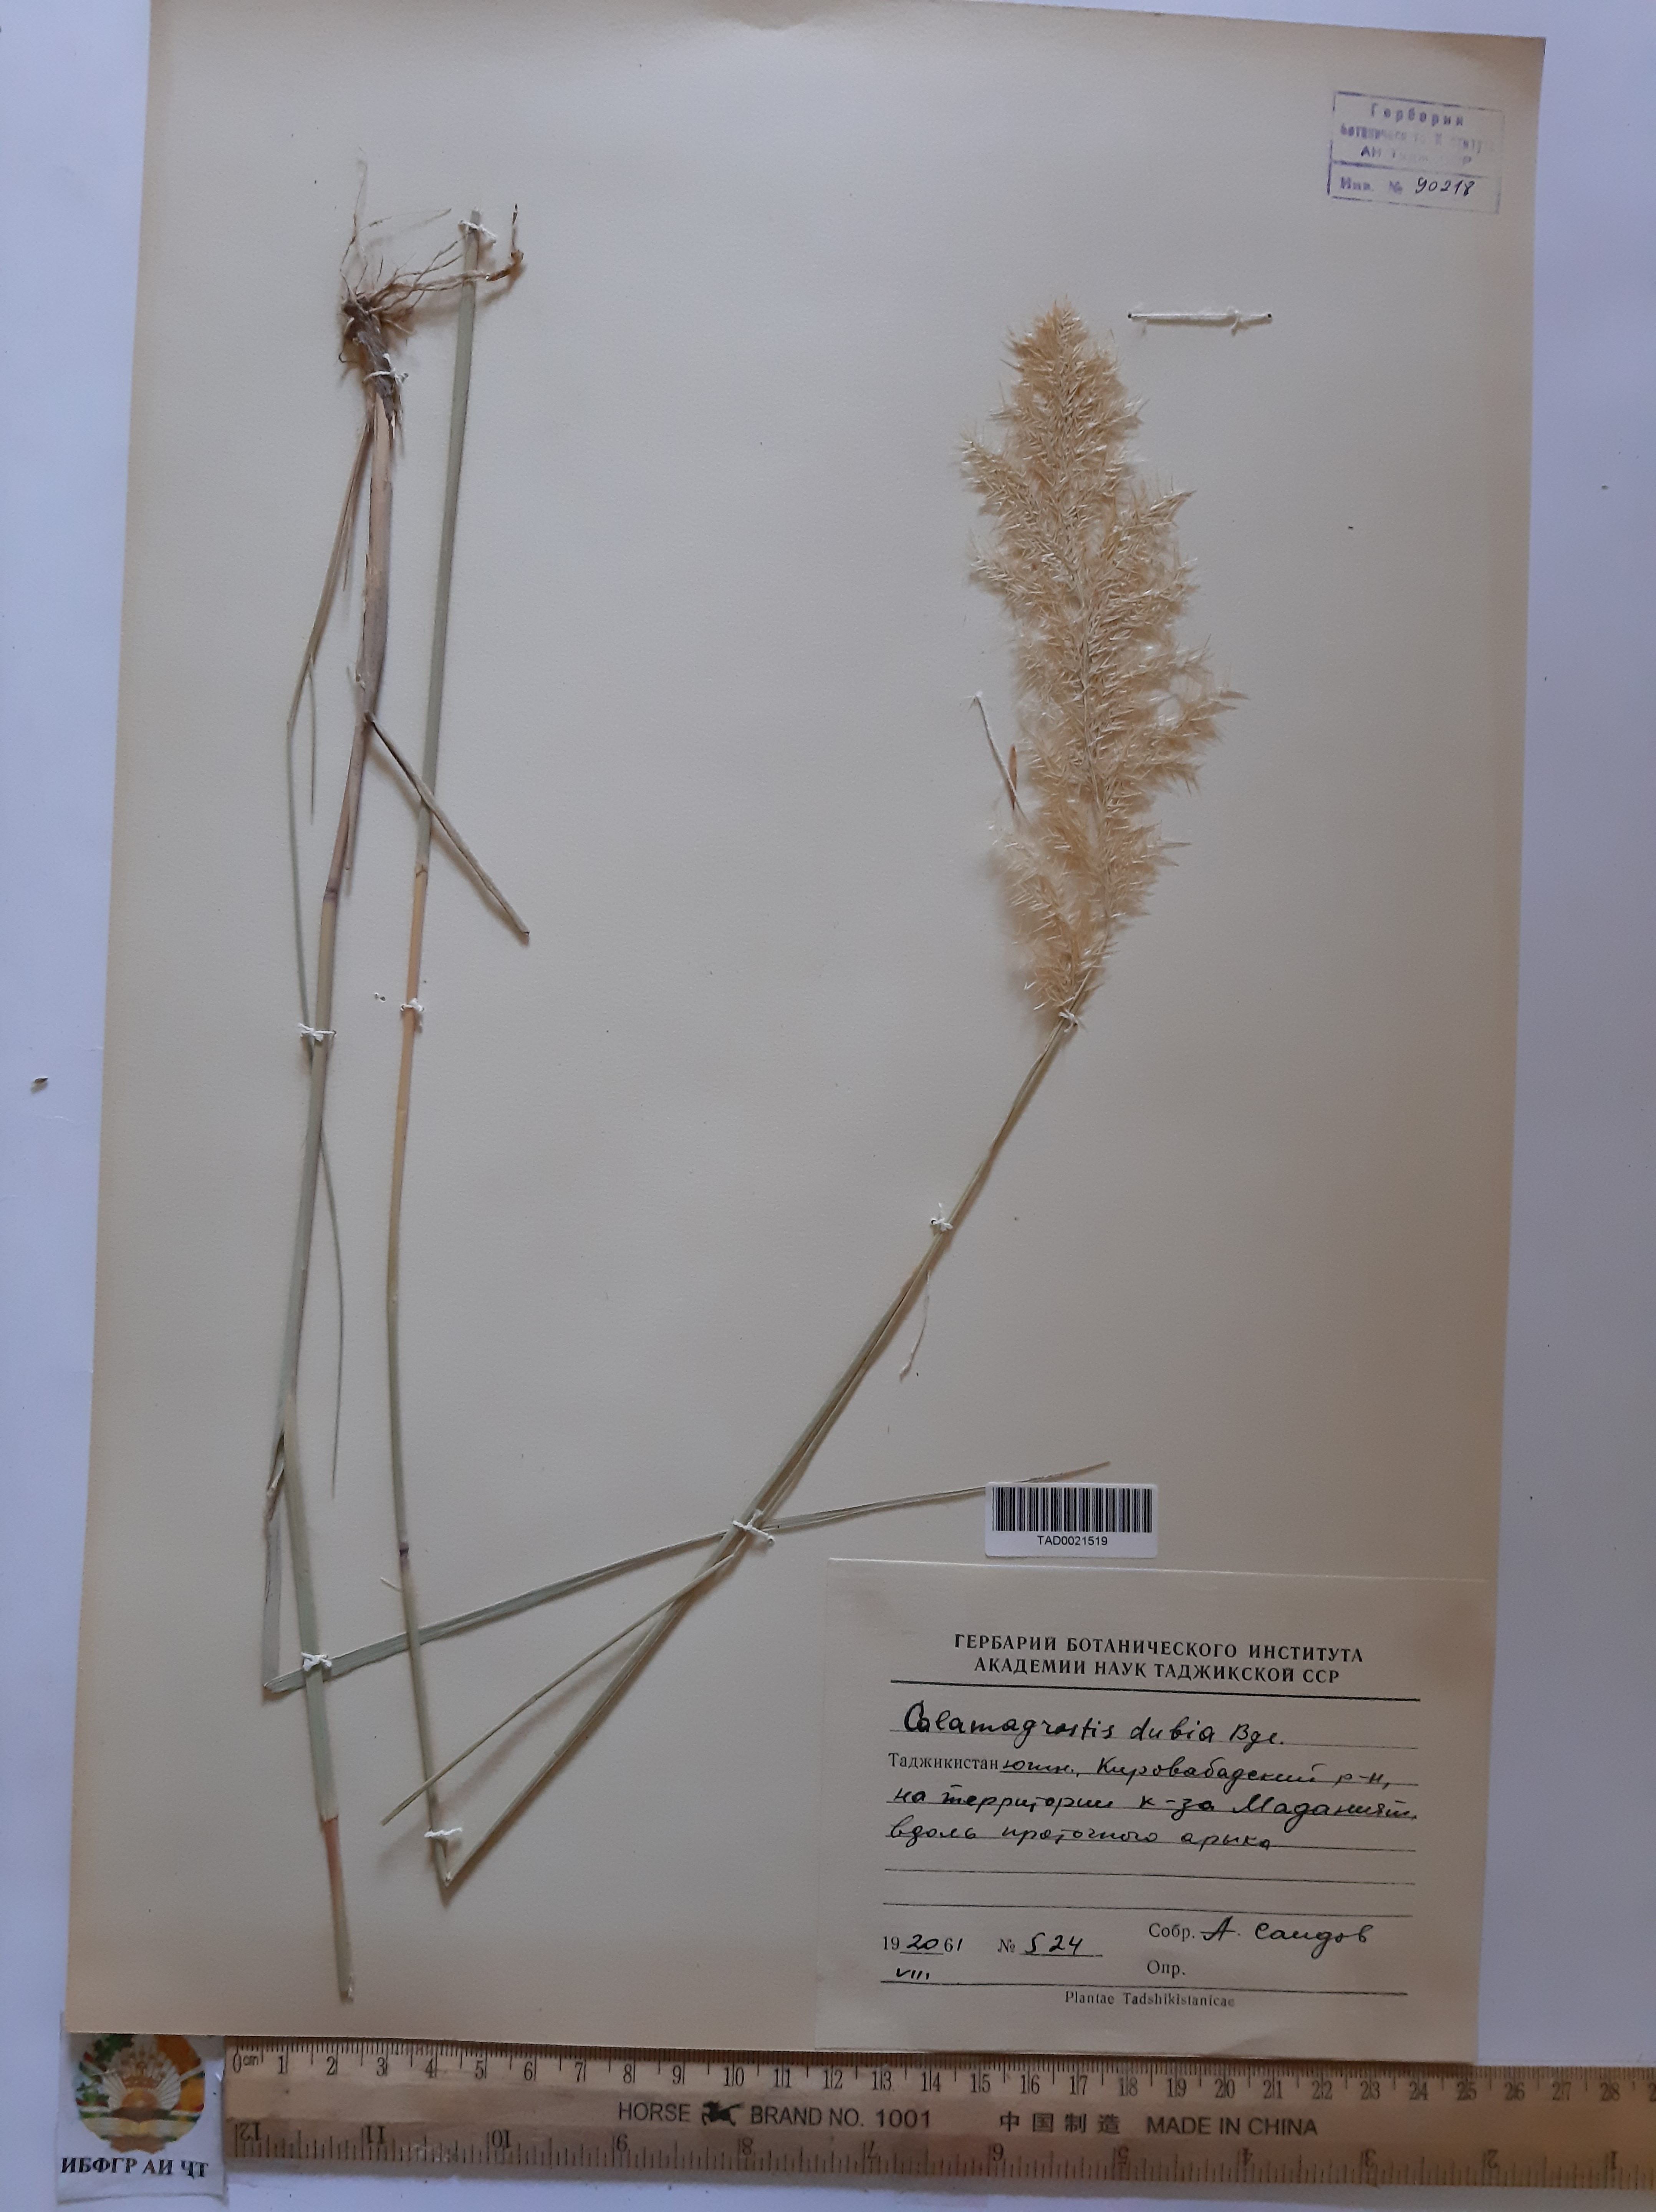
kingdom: Plantae
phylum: Tracheophyta
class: Liliopsida
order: Poales
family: Poaceae
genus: Calamagrostis
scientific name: Calamagrostis pseudophragmites
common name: Coastal small-reed
